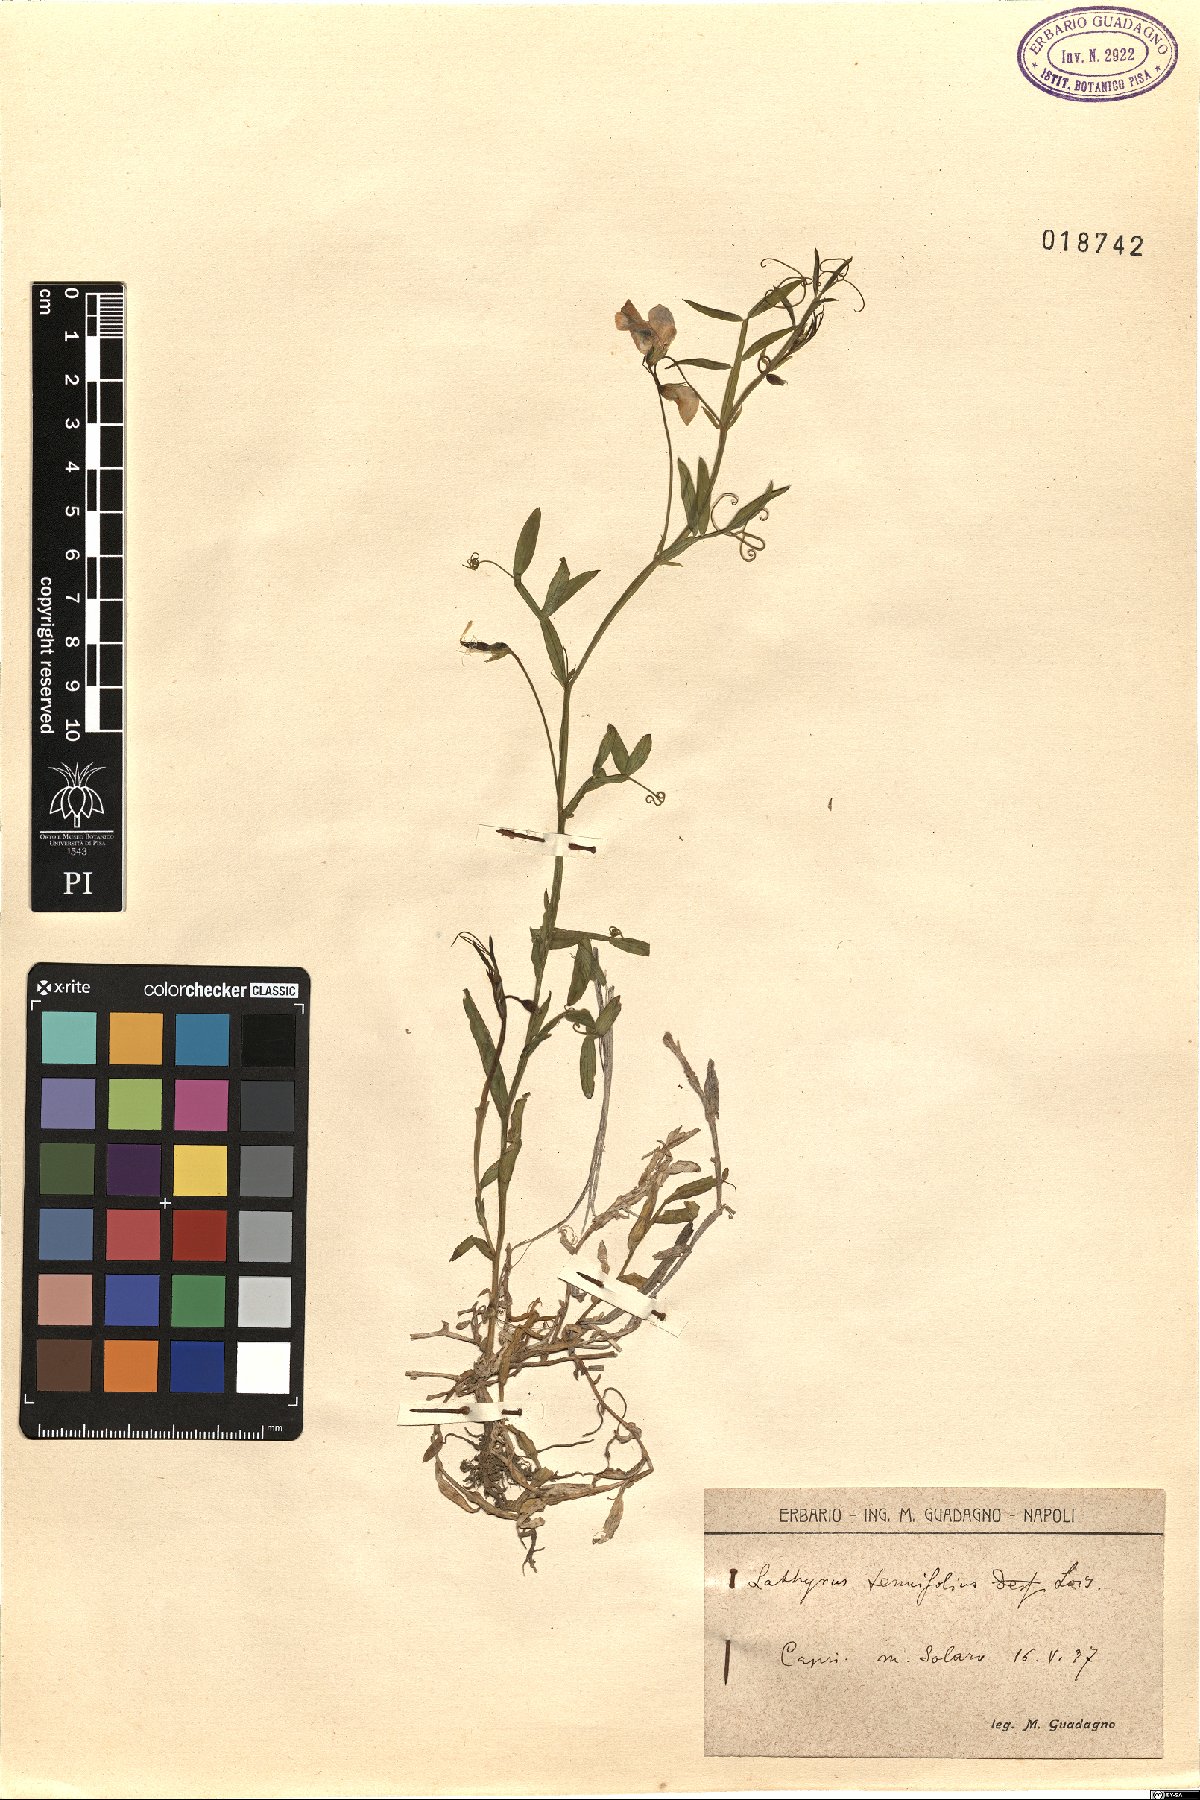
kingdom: Plantae
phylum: Tracheophyta
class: Magnoliopsida
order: Fabales
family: Fabaceae
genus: Lathyrus
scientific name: Lathyrus clymenum
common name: Spanish vetchling
